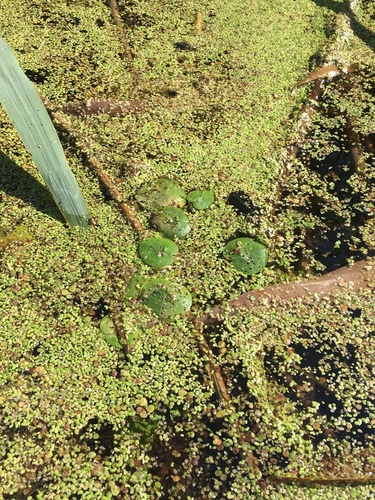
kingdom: Plantae
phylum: Tracheophyta
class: Liliopsida
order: Alismatales
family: Hydrocharitaceae
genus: Hydrocharis
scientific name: Hydrocharis morsus-ranae
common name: European frog-bit
